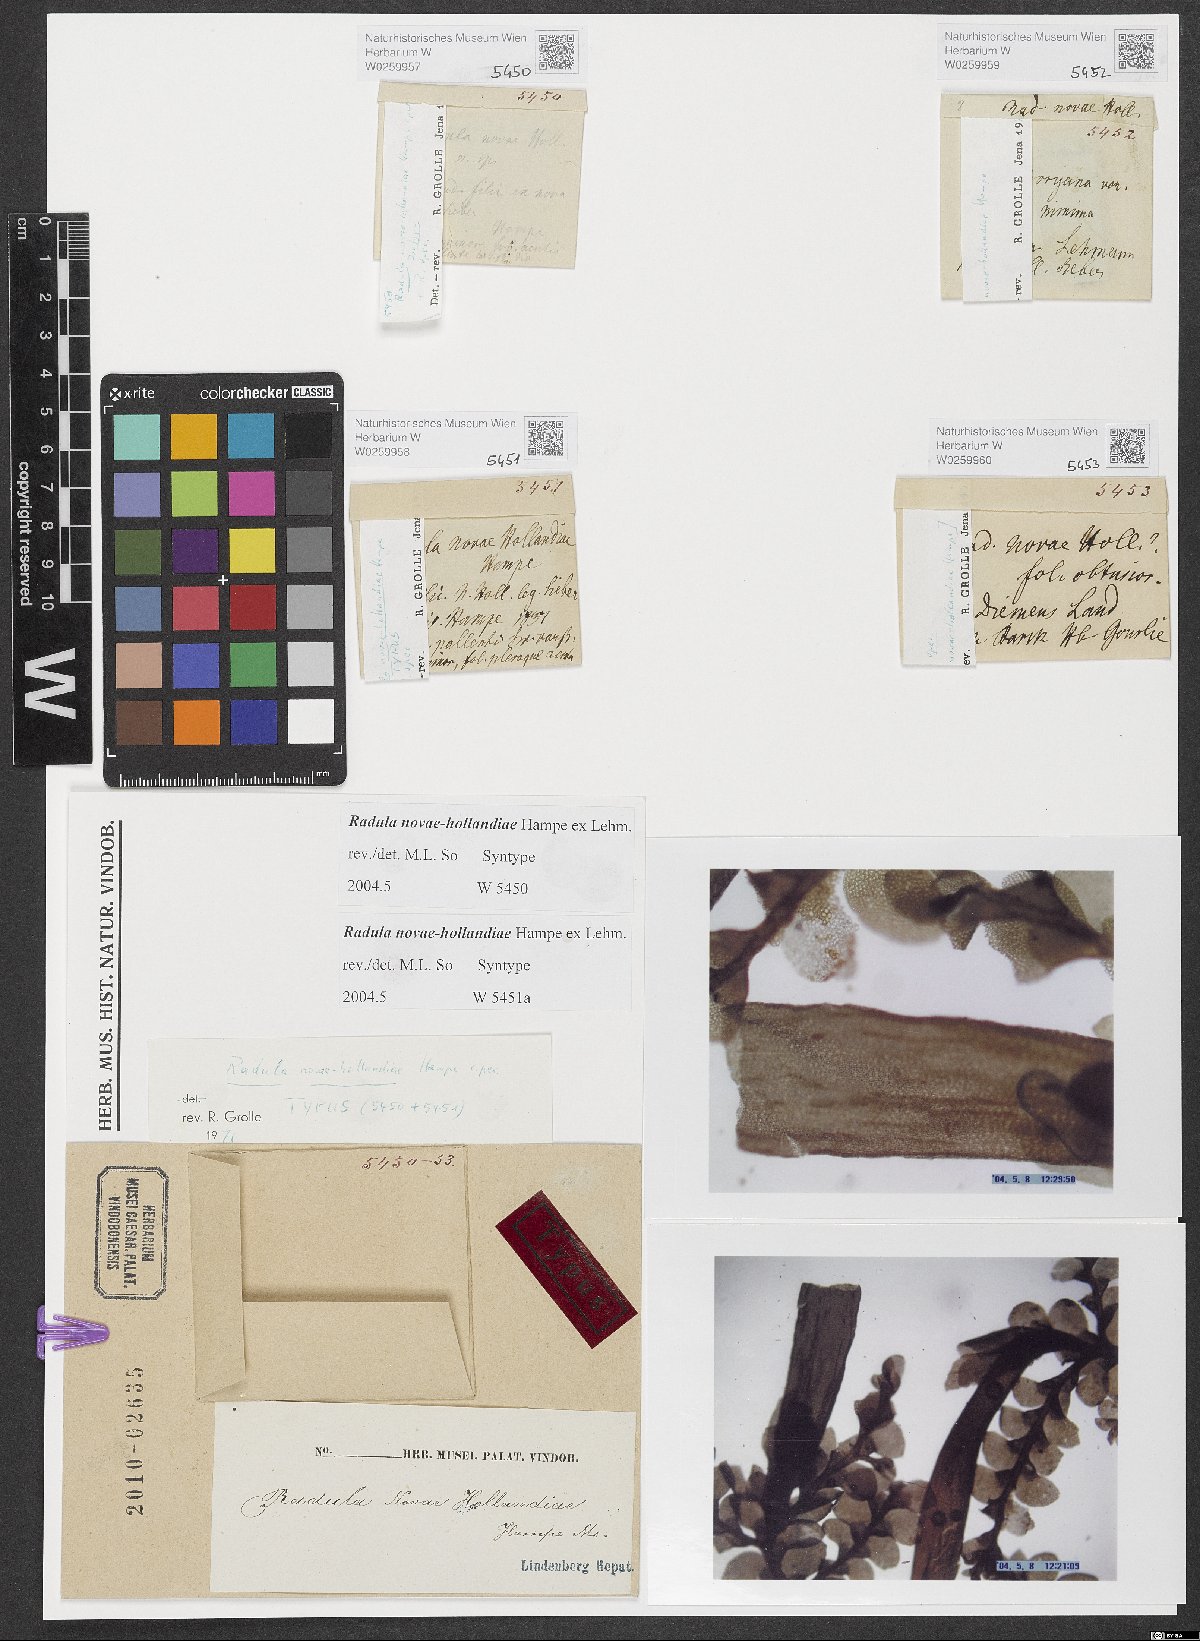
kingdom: Plantae
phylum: Marchantiophyta
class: Jungermanniopsida
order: Porellales
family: Radulaceae
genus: Radula
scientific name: Radula novae-hollandiae
